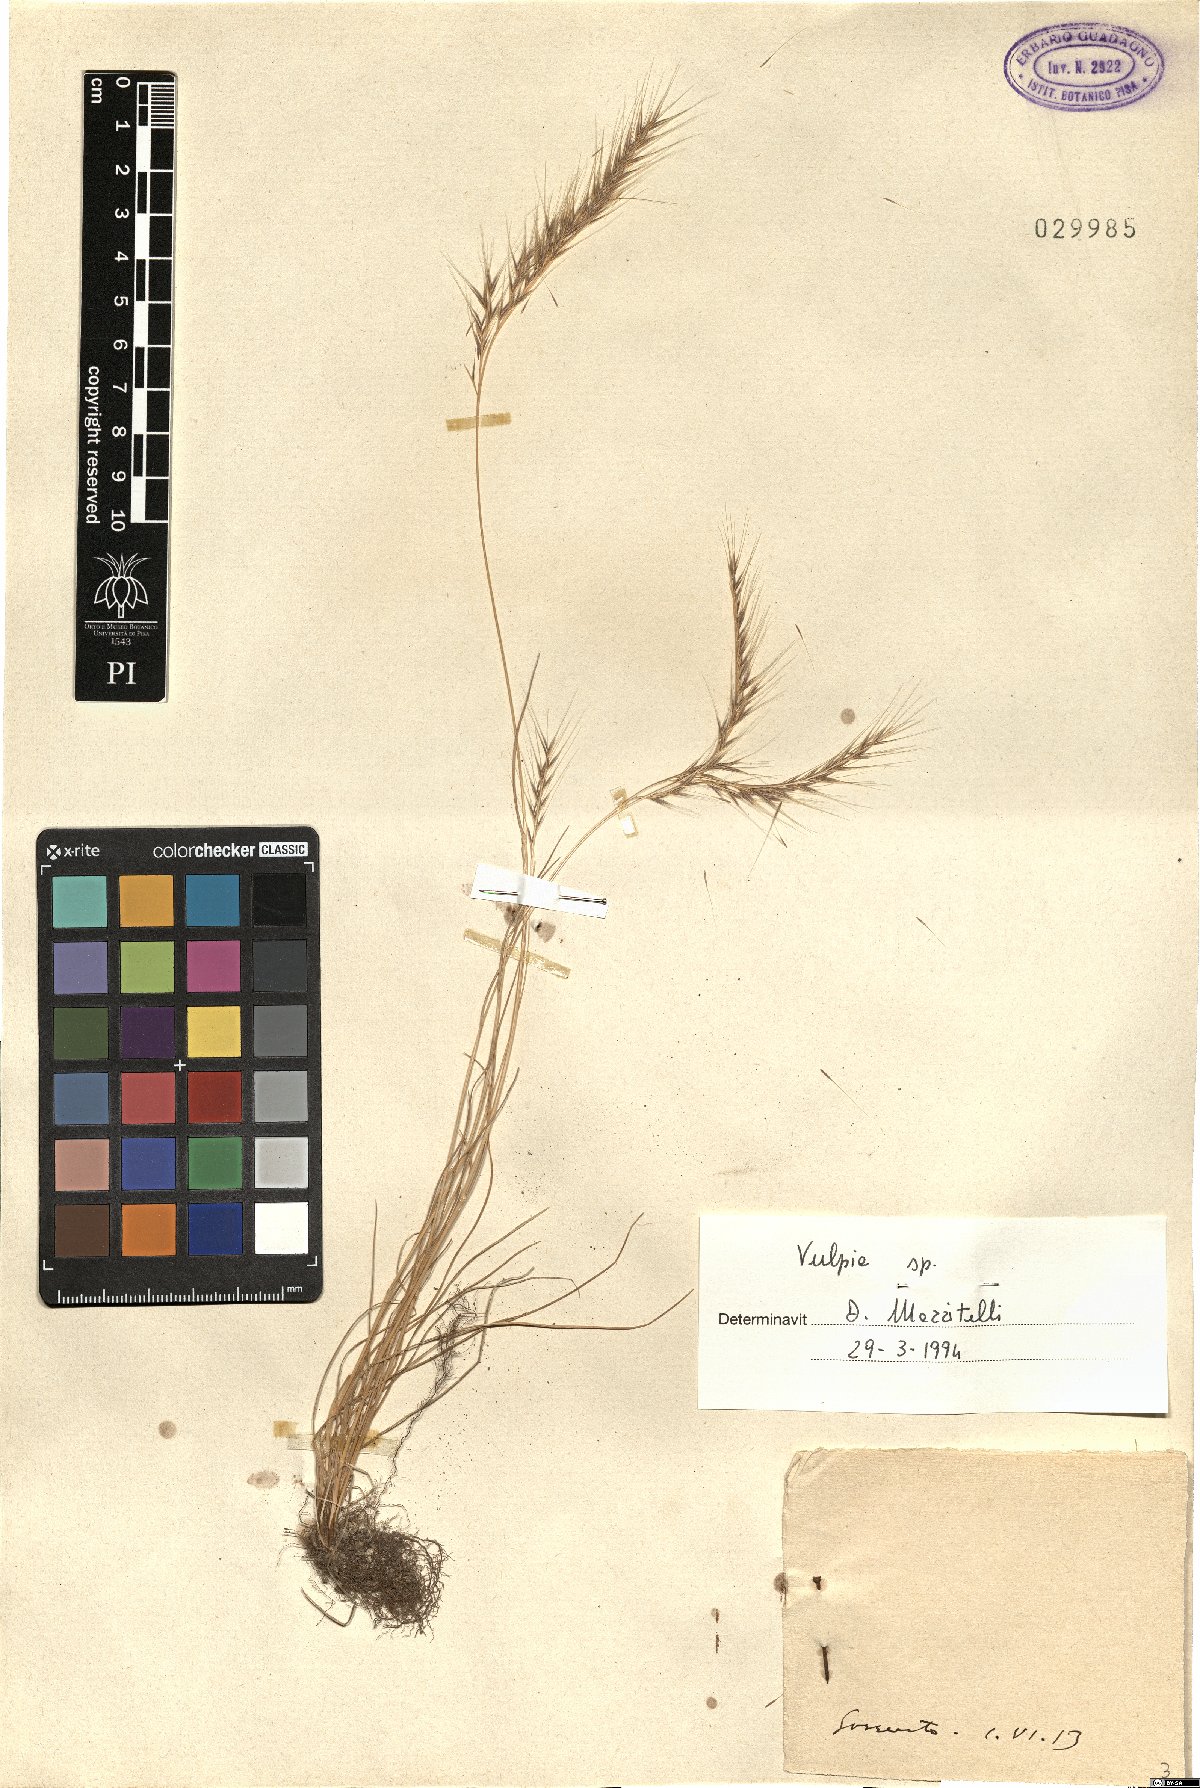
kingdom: Plantae
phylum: Tracheophyta
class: Liliopsida
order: Poales
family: Poaceae
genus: Festuca
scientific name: Festuca
